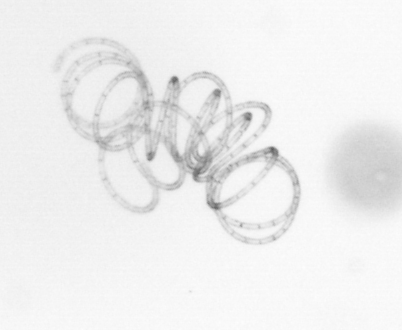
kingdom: Chromista
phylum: Ochrophyta
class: Bacillariophyceae
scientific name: Bacillariophyceae
